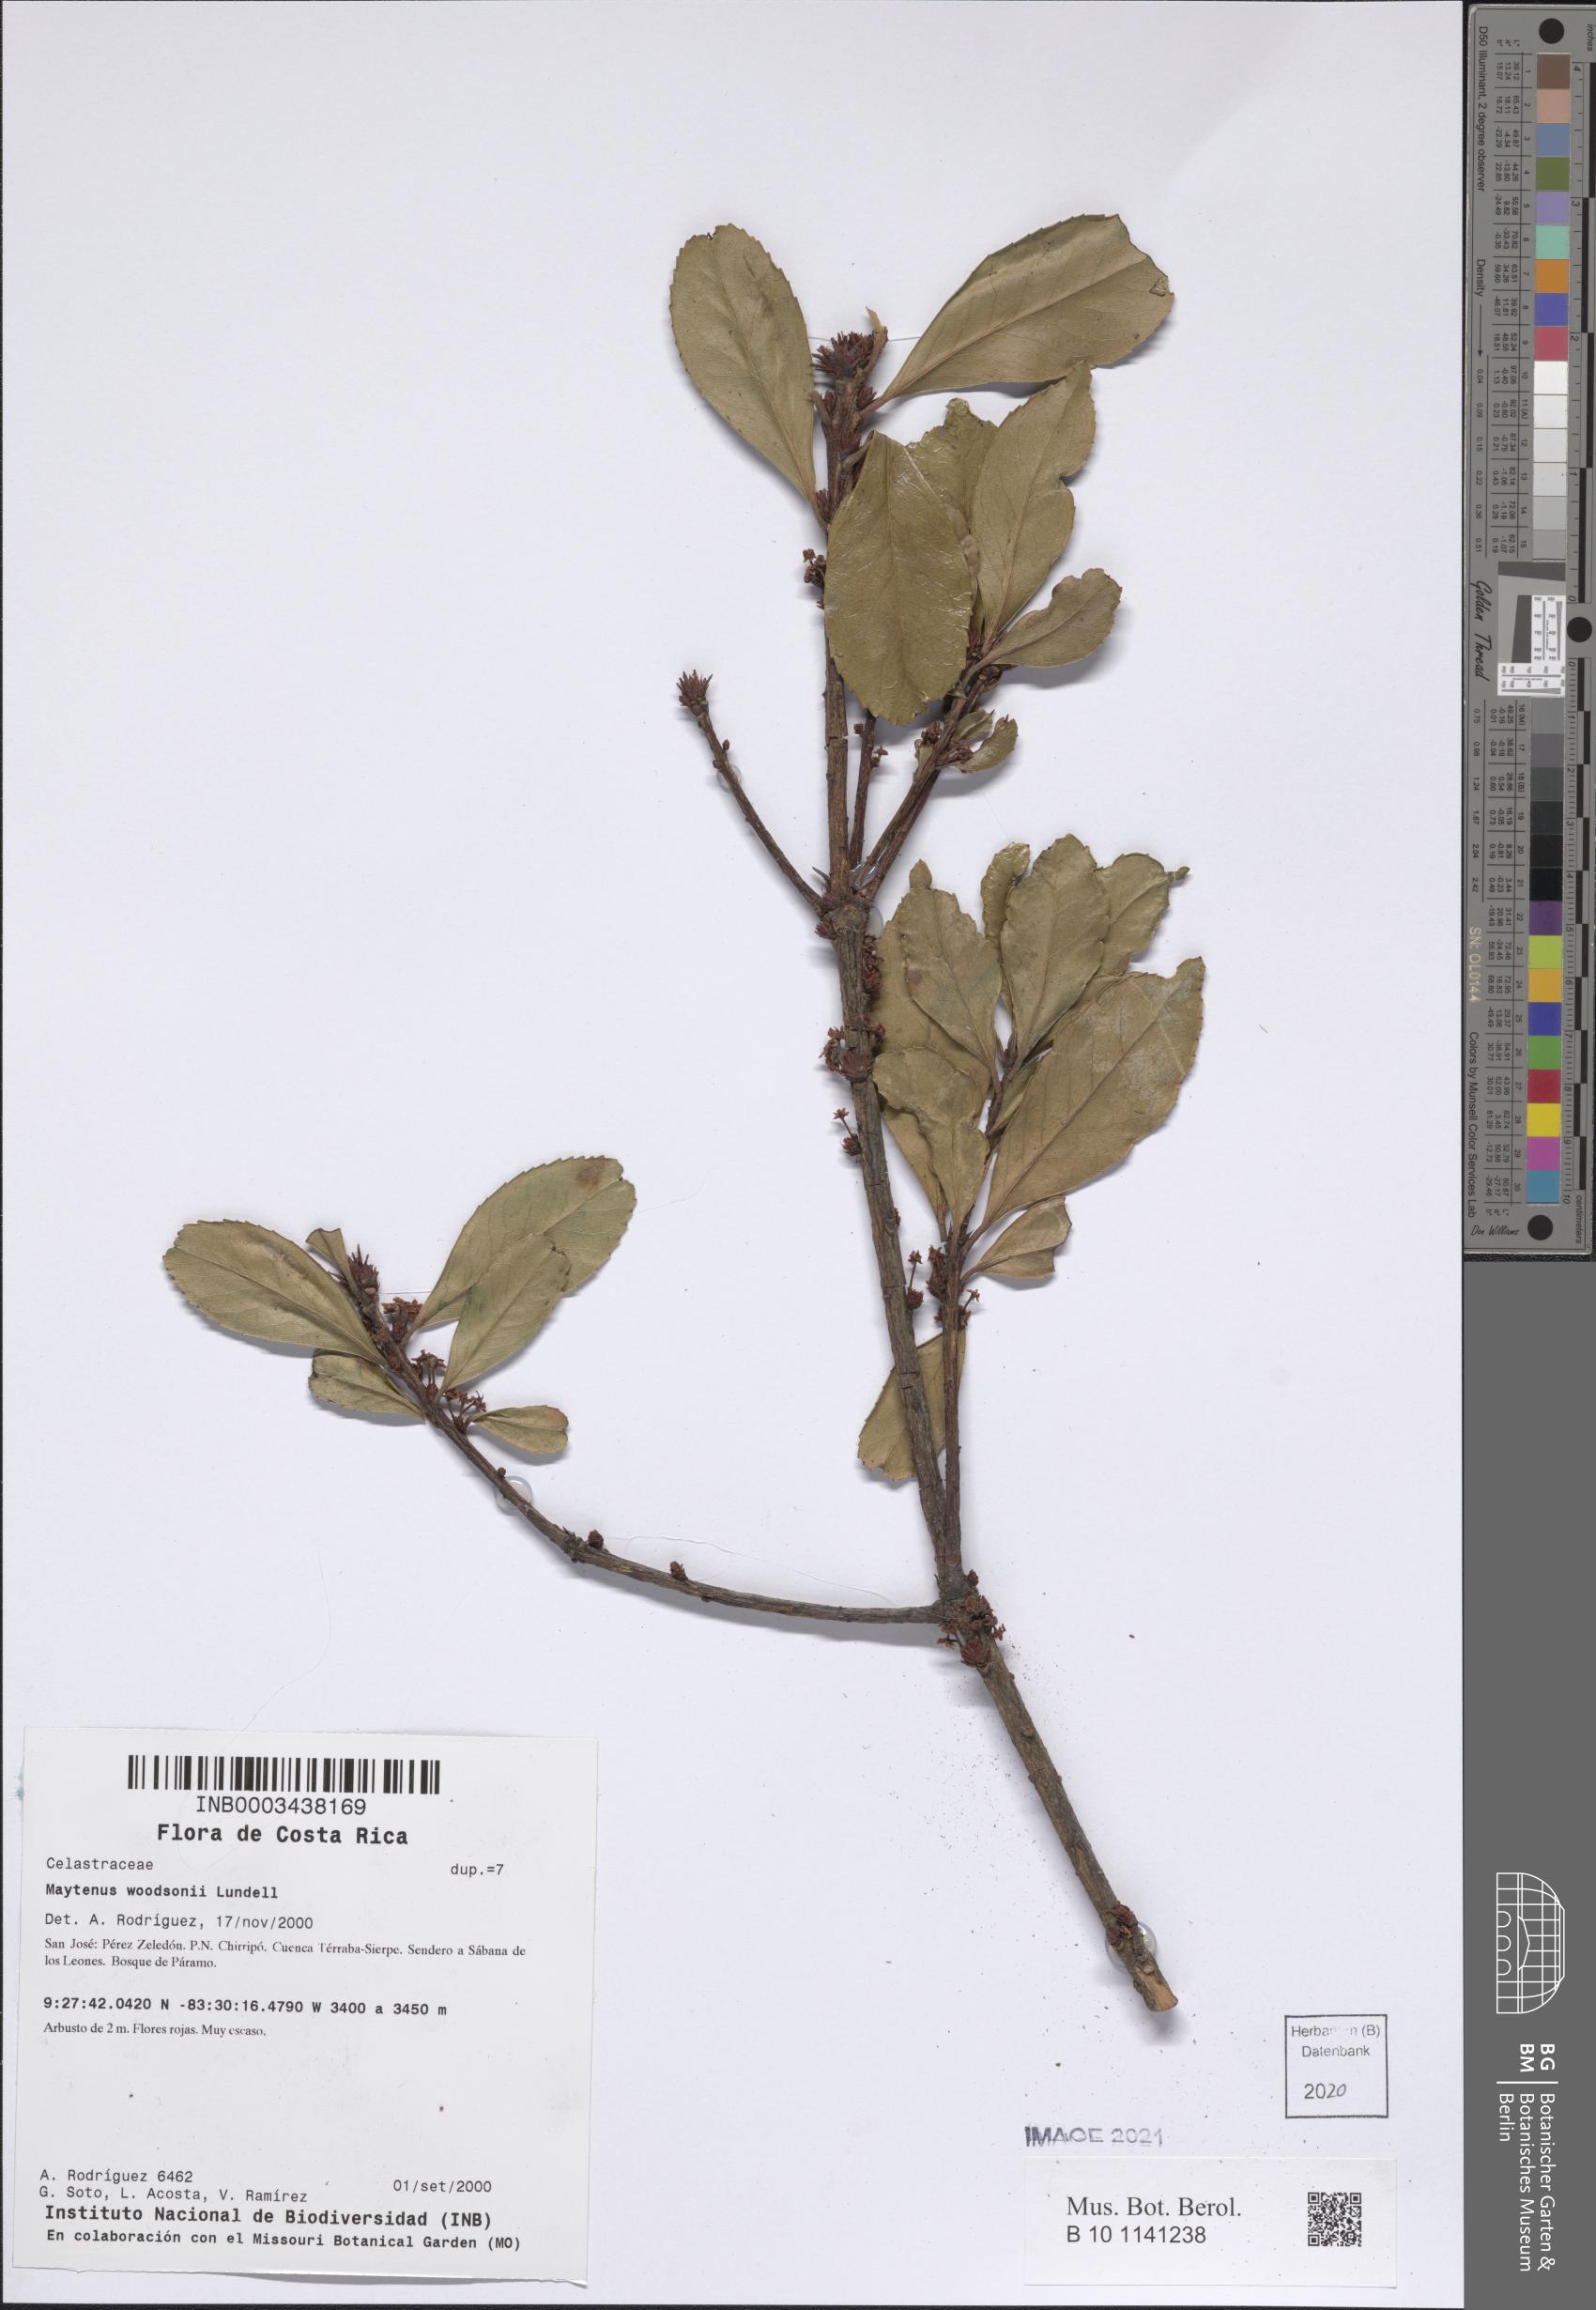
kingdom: Plantae
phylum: Tracheophyta
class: Magnoliopsida
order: Celastrales
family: Celastraceae
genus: Maytenus
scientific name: Maytenus woodsonii
